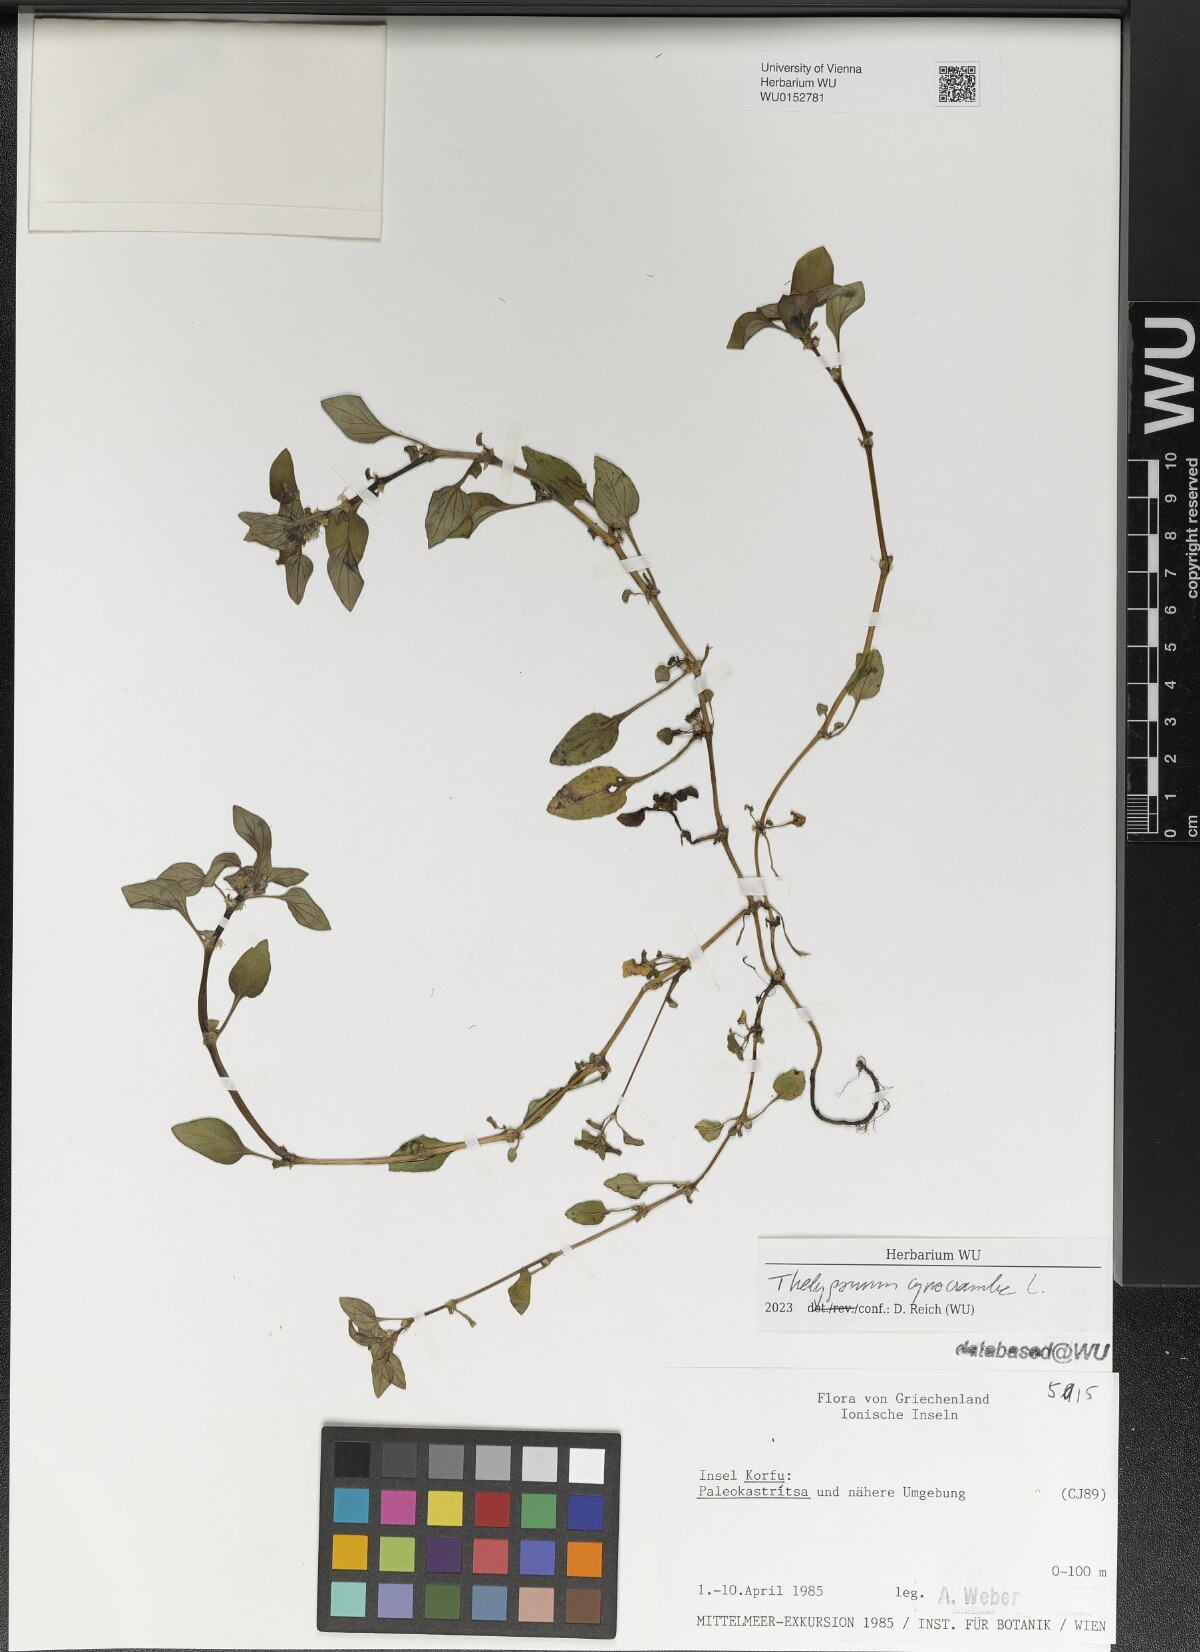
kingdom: Plantae
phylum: Tracheophyta
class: Magnoliopsida
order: Gentianales
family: Rubiaceae
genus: Theligonum
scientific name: Theligonum cynocrambe
